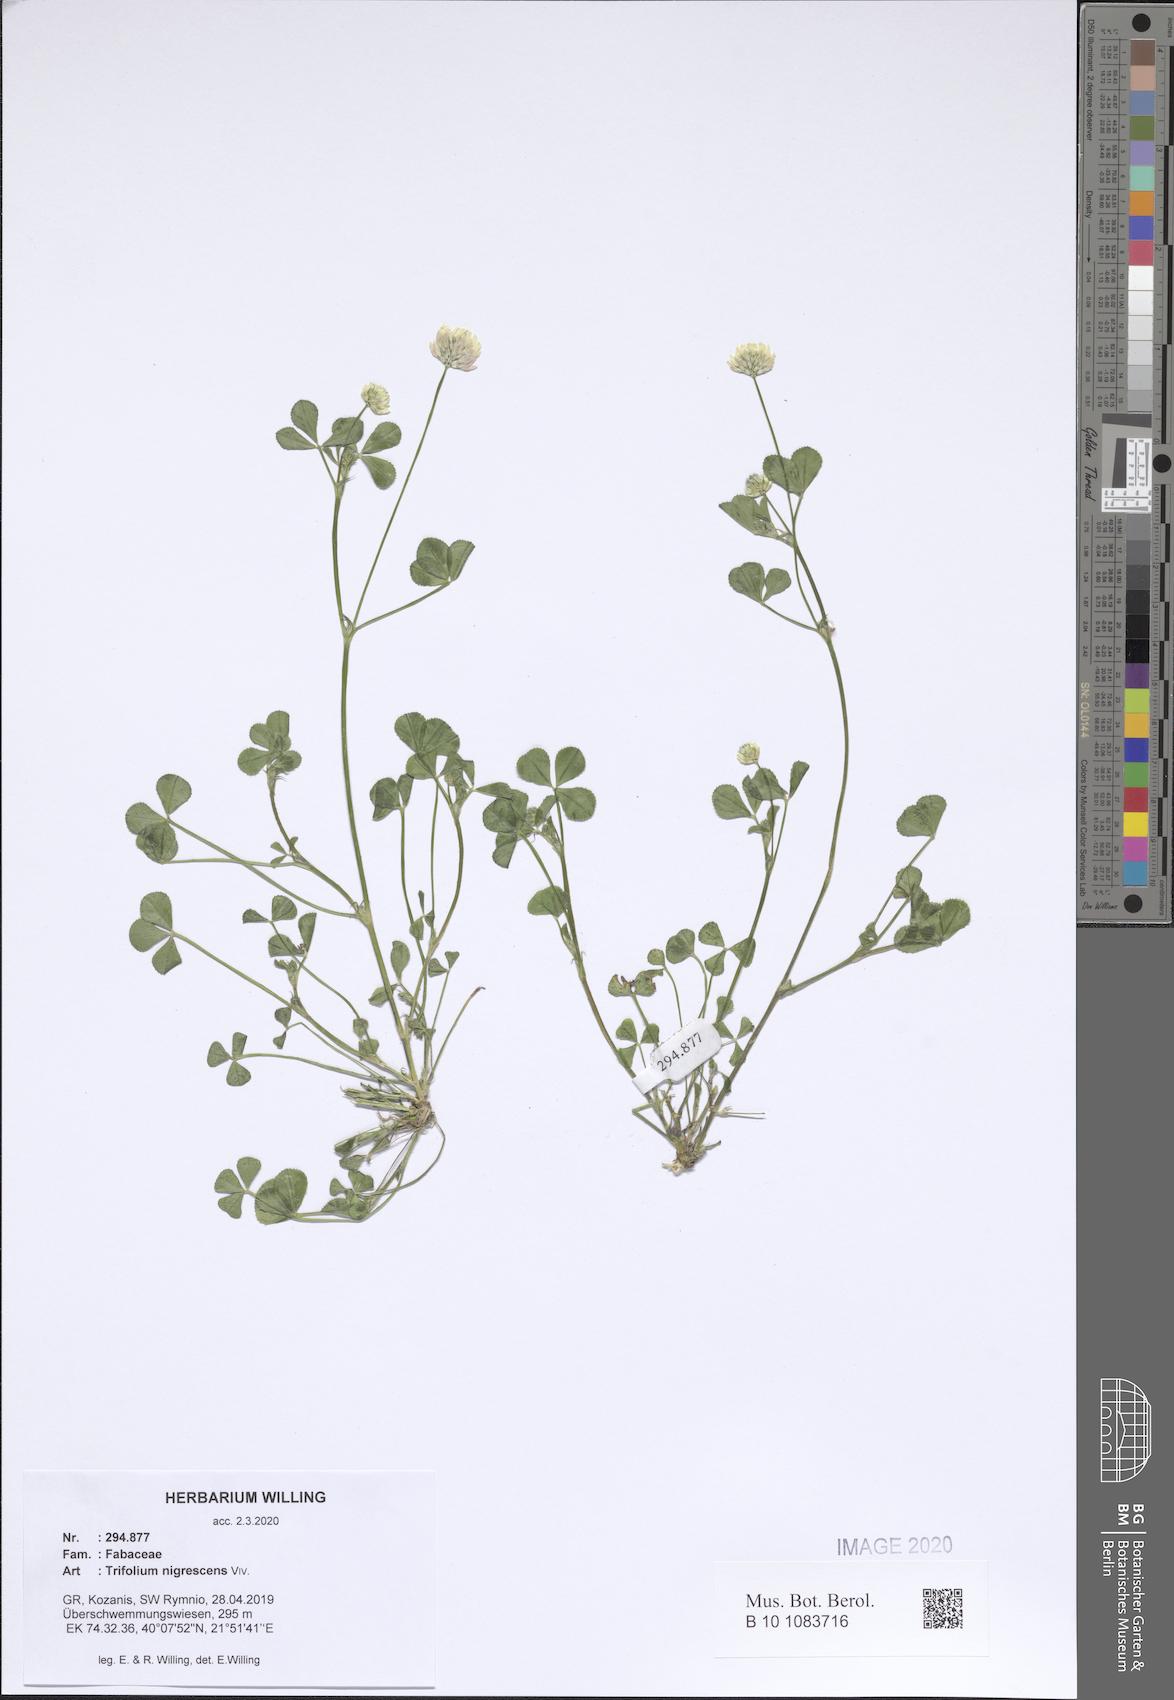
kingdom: Plantae
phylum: Tracheophyta
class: Magnoliopsida
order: Fabales
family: Fabaceae
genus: Trifolium
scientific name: Trifolium nigrescens
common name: Small white clover
